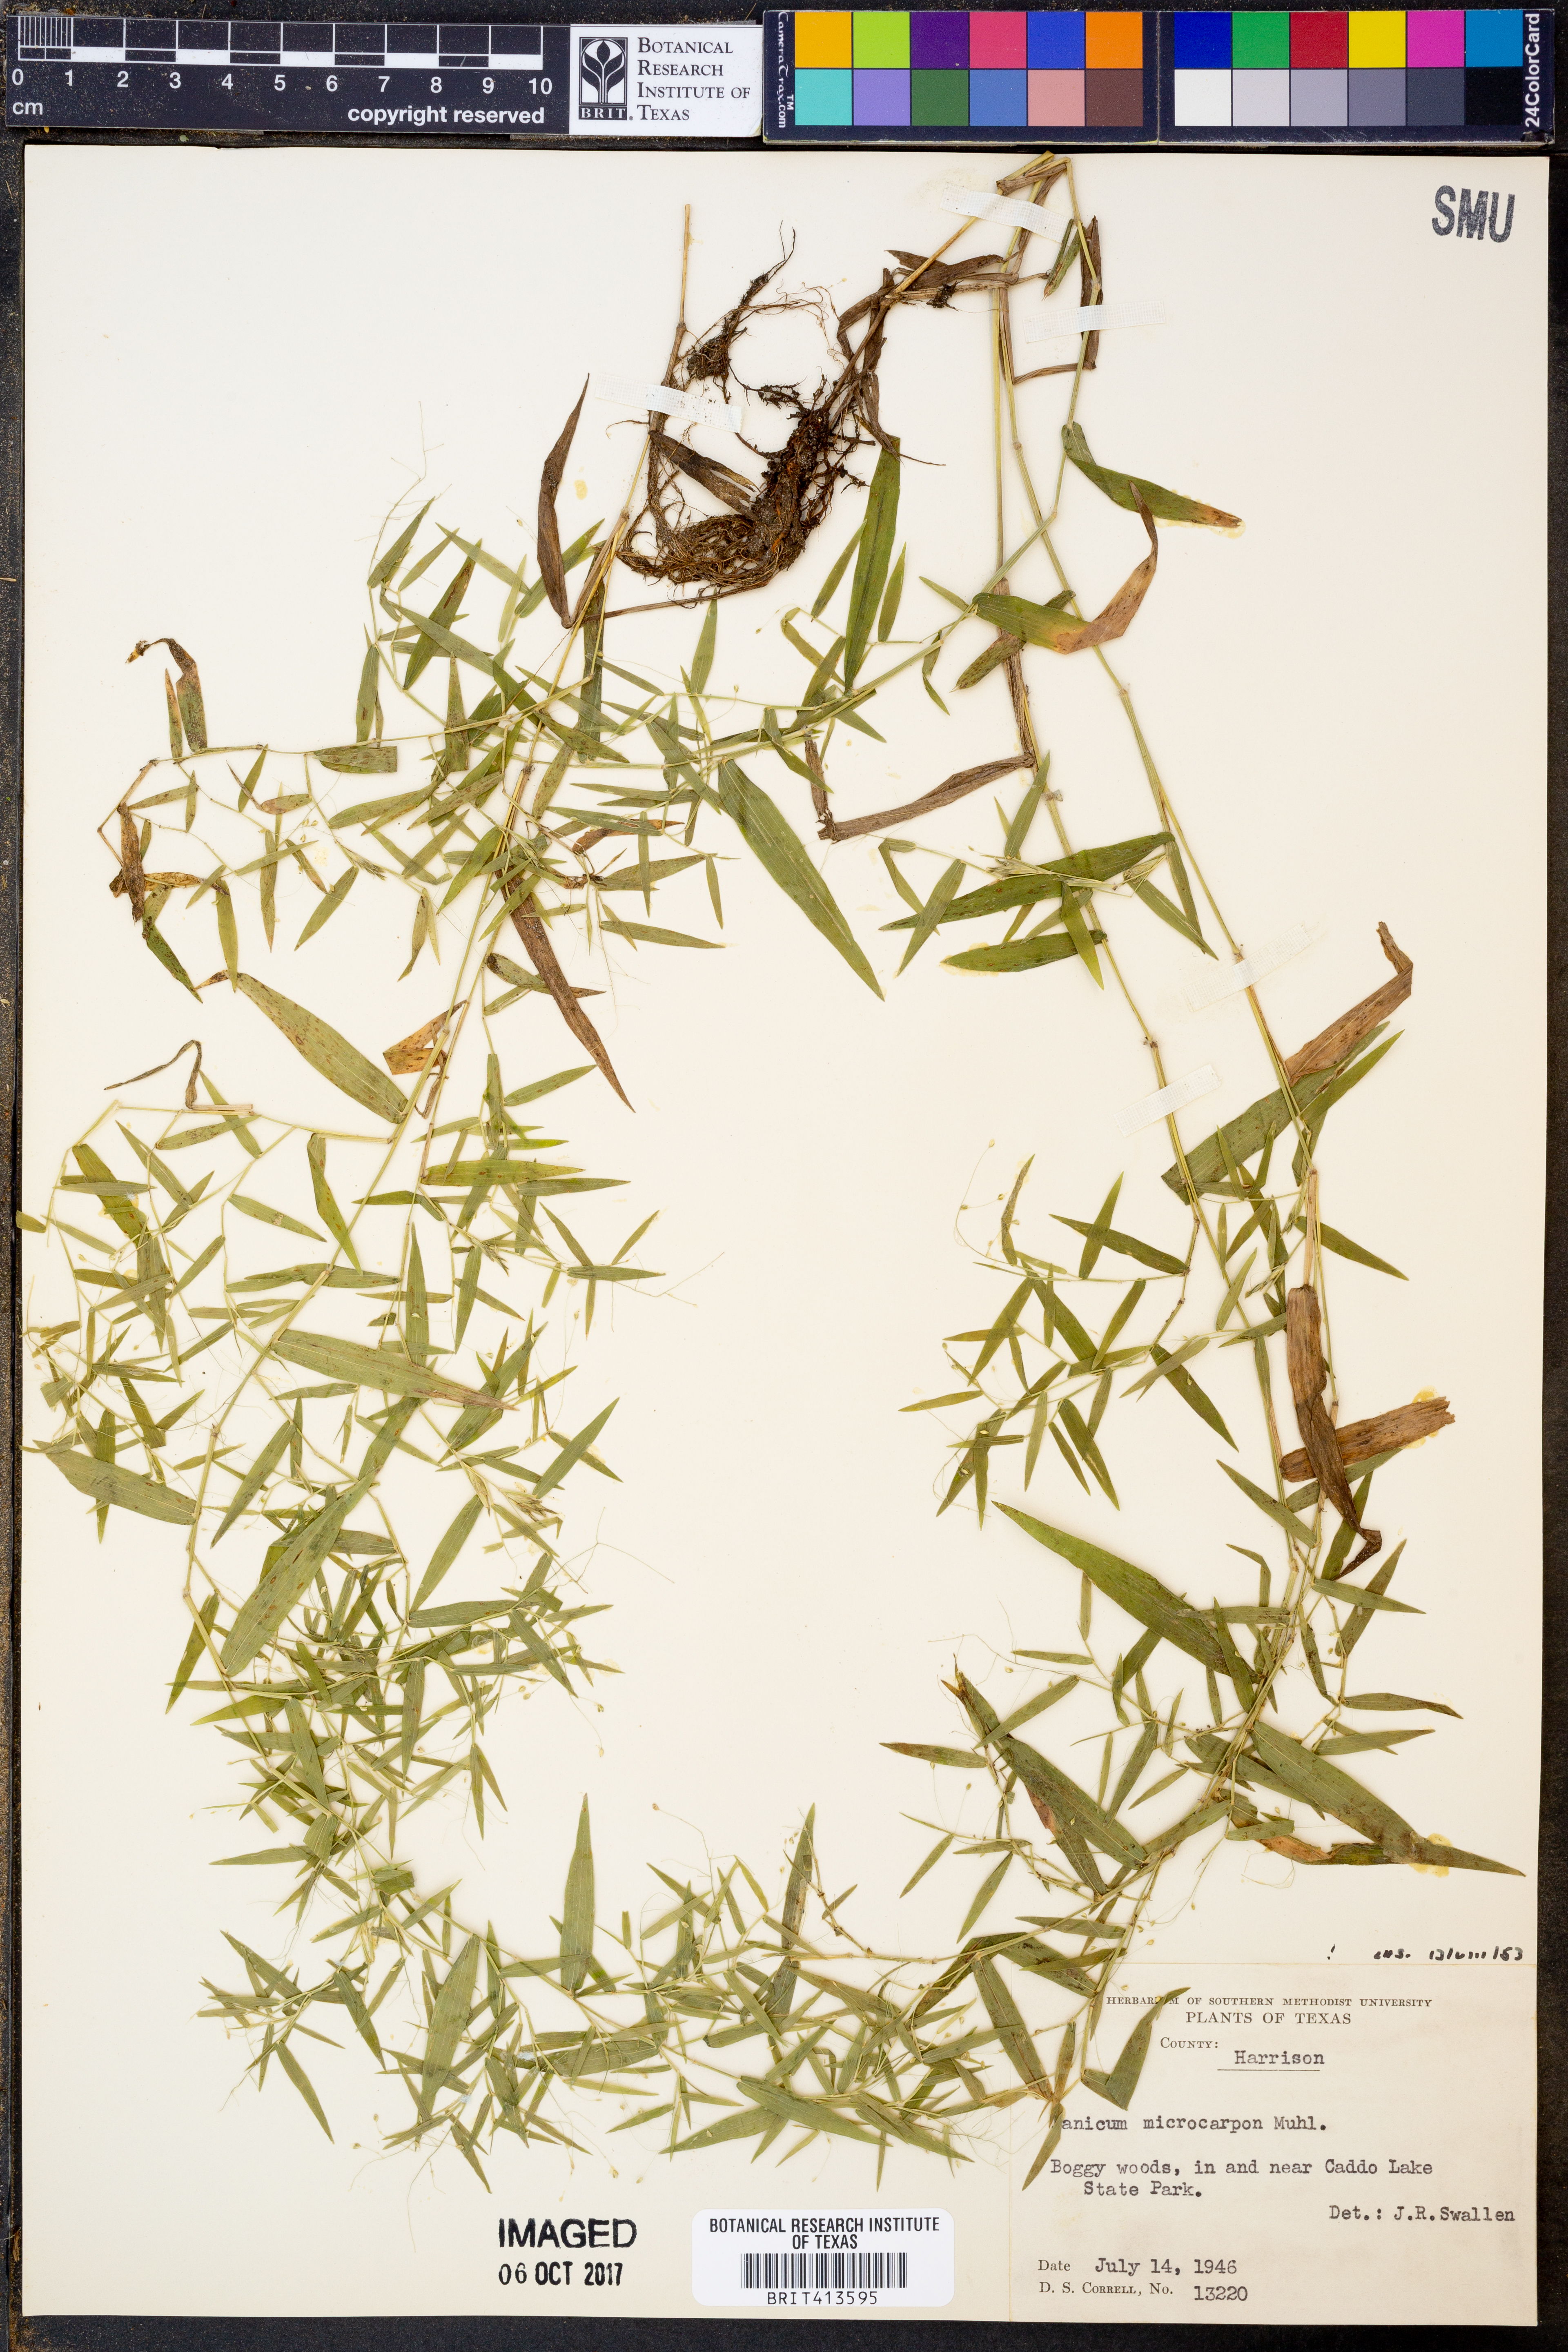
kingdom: Plantae
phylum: Tracheophyta
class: Liliopsida
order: Poales
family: Poaceae
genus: Dichanthelium
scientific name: Dichanthelium polyanthes
